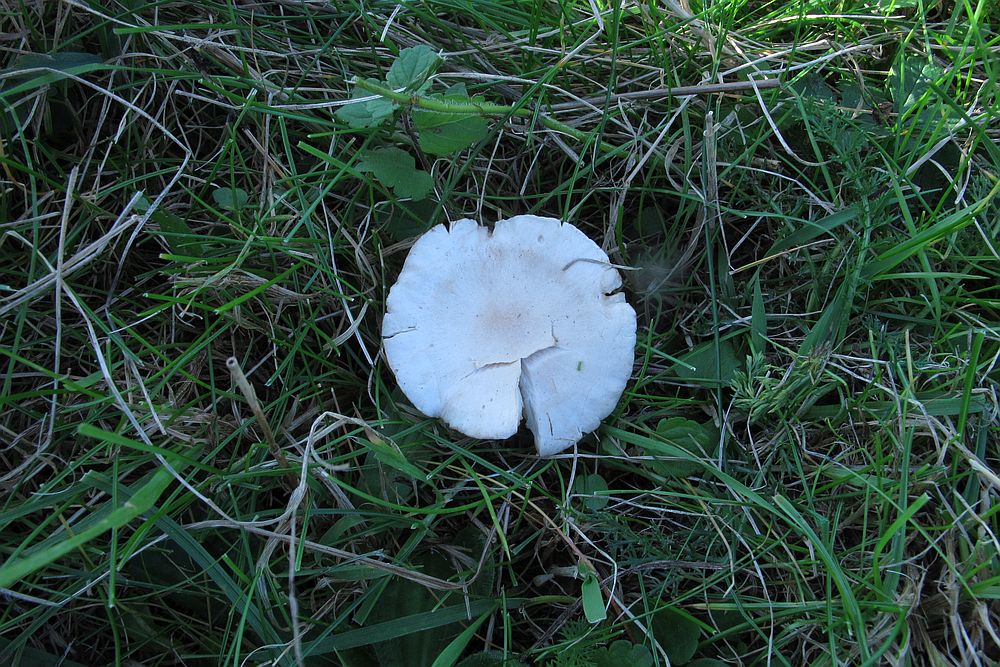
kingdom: Fungi
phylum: Basidiomycota
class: Agaricomycetes
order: Agaricales
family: Tricholomataceae
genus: Clitocybe
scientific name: Clitocybe rivulosa
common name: eng-tragthat
